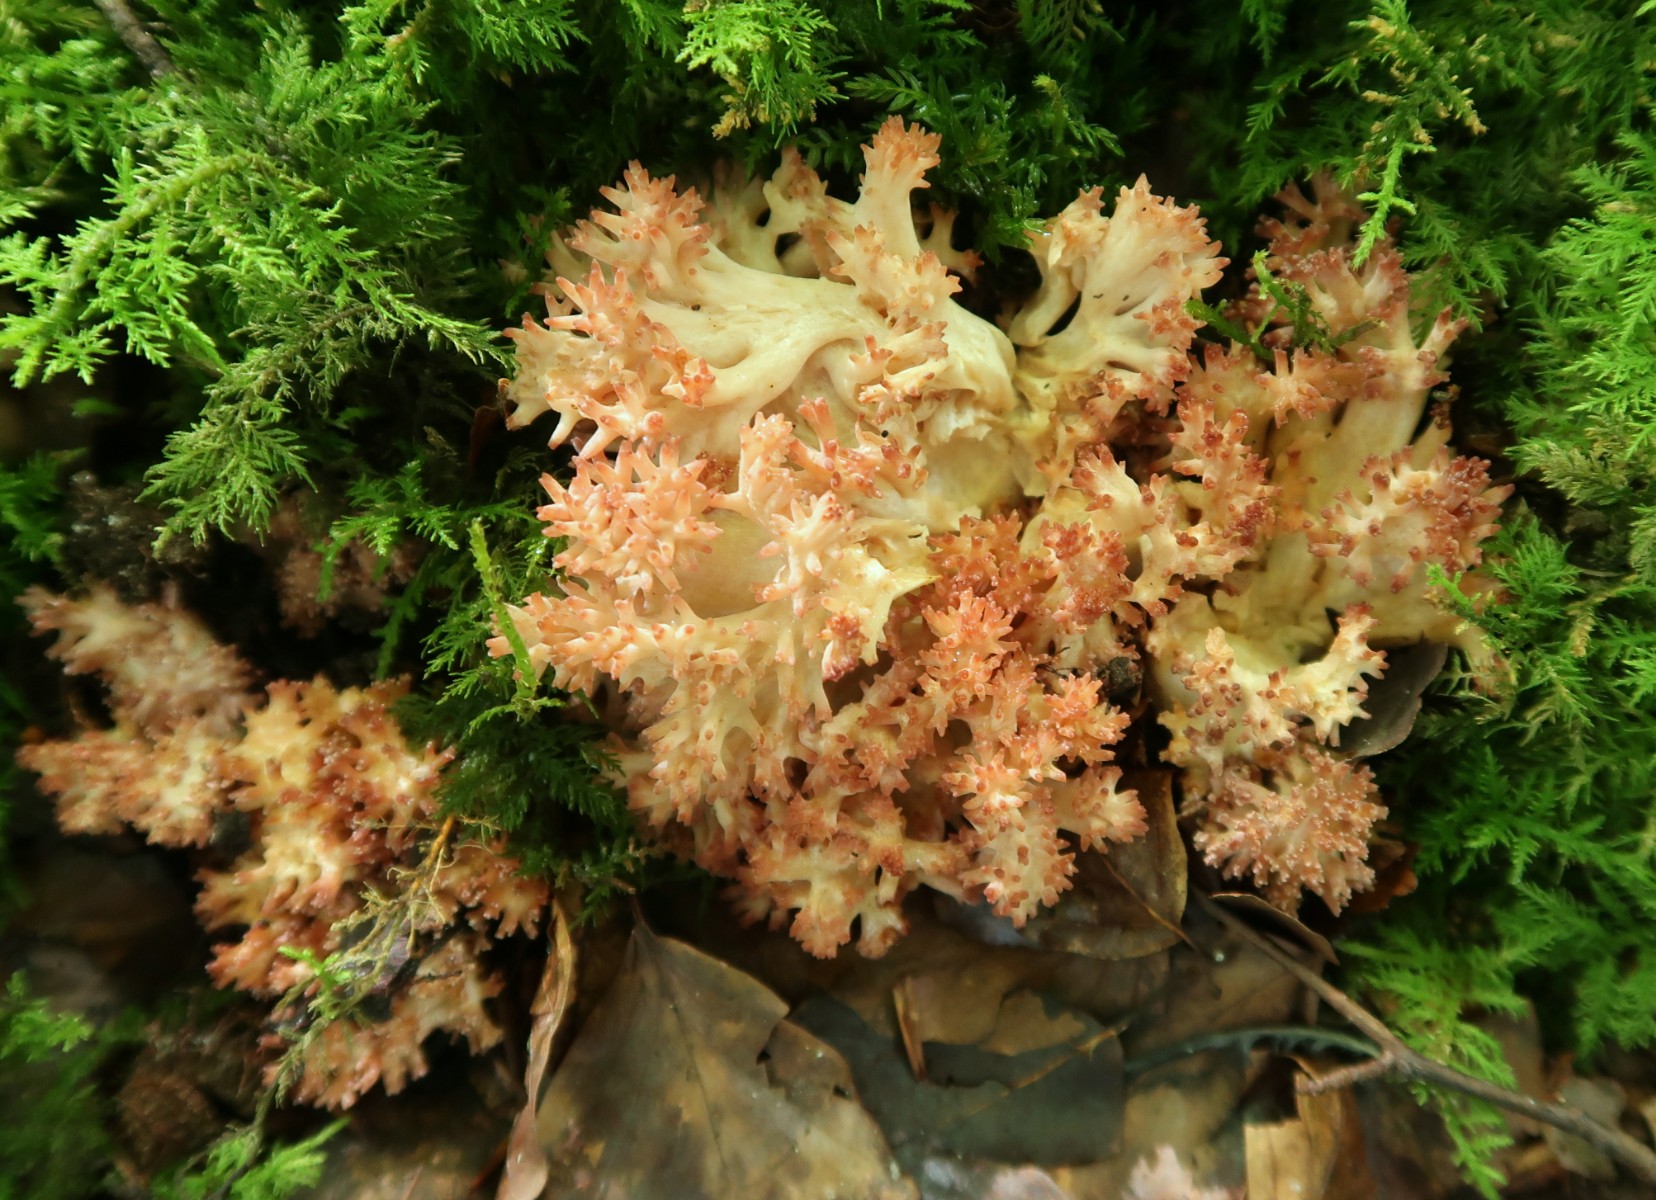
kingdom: Fungi
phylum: Basidiomycota
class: Agaricomycetes
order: Gomphales
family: Gomphaceae
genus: Ramaria
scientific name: Ramaria botrytis
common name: drue-koralsvamp
